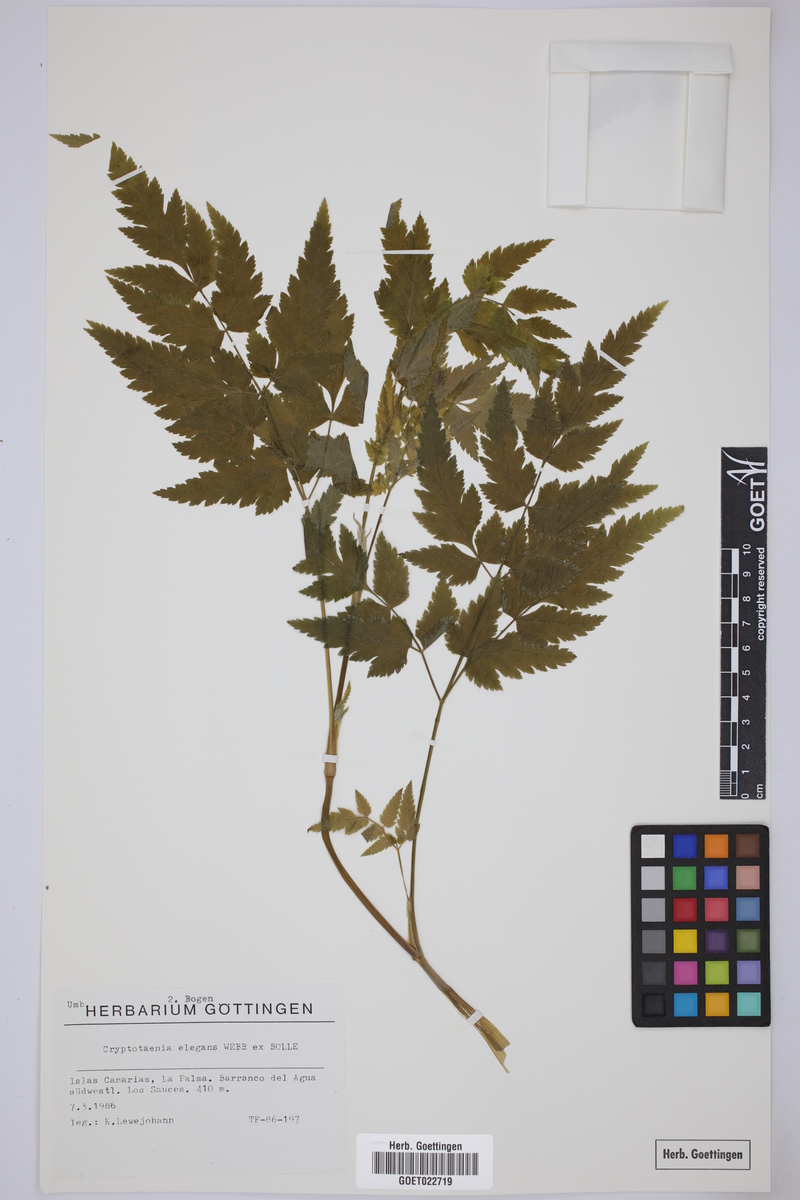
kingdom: Plantae
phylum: Tracheophyta
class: Magnoliopsida
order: Apiales
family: Apiaceae
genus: Daucus
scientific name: Daucus elegans
